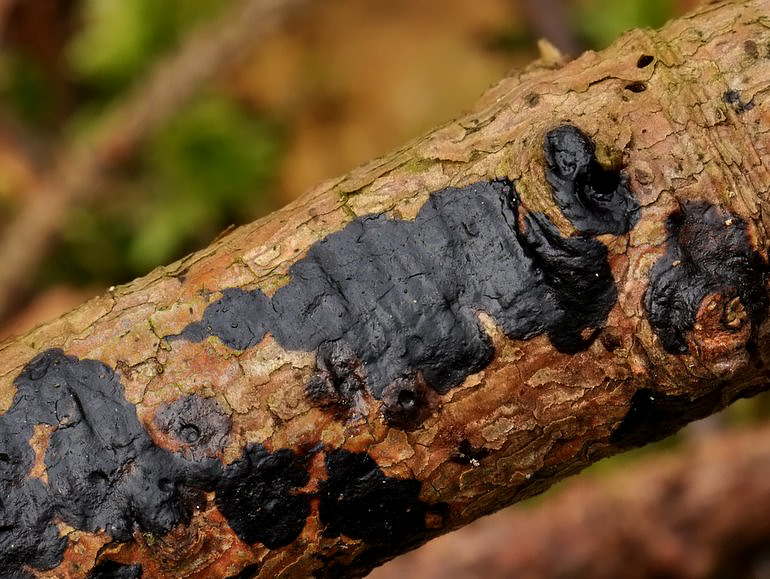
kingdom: Fungi
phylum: Basidiomycota
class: Agaricomycetes
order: Auriculariales
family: Auriculariaceae
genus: Exidia
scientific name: Exidia pithya
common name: gran-bævretop
